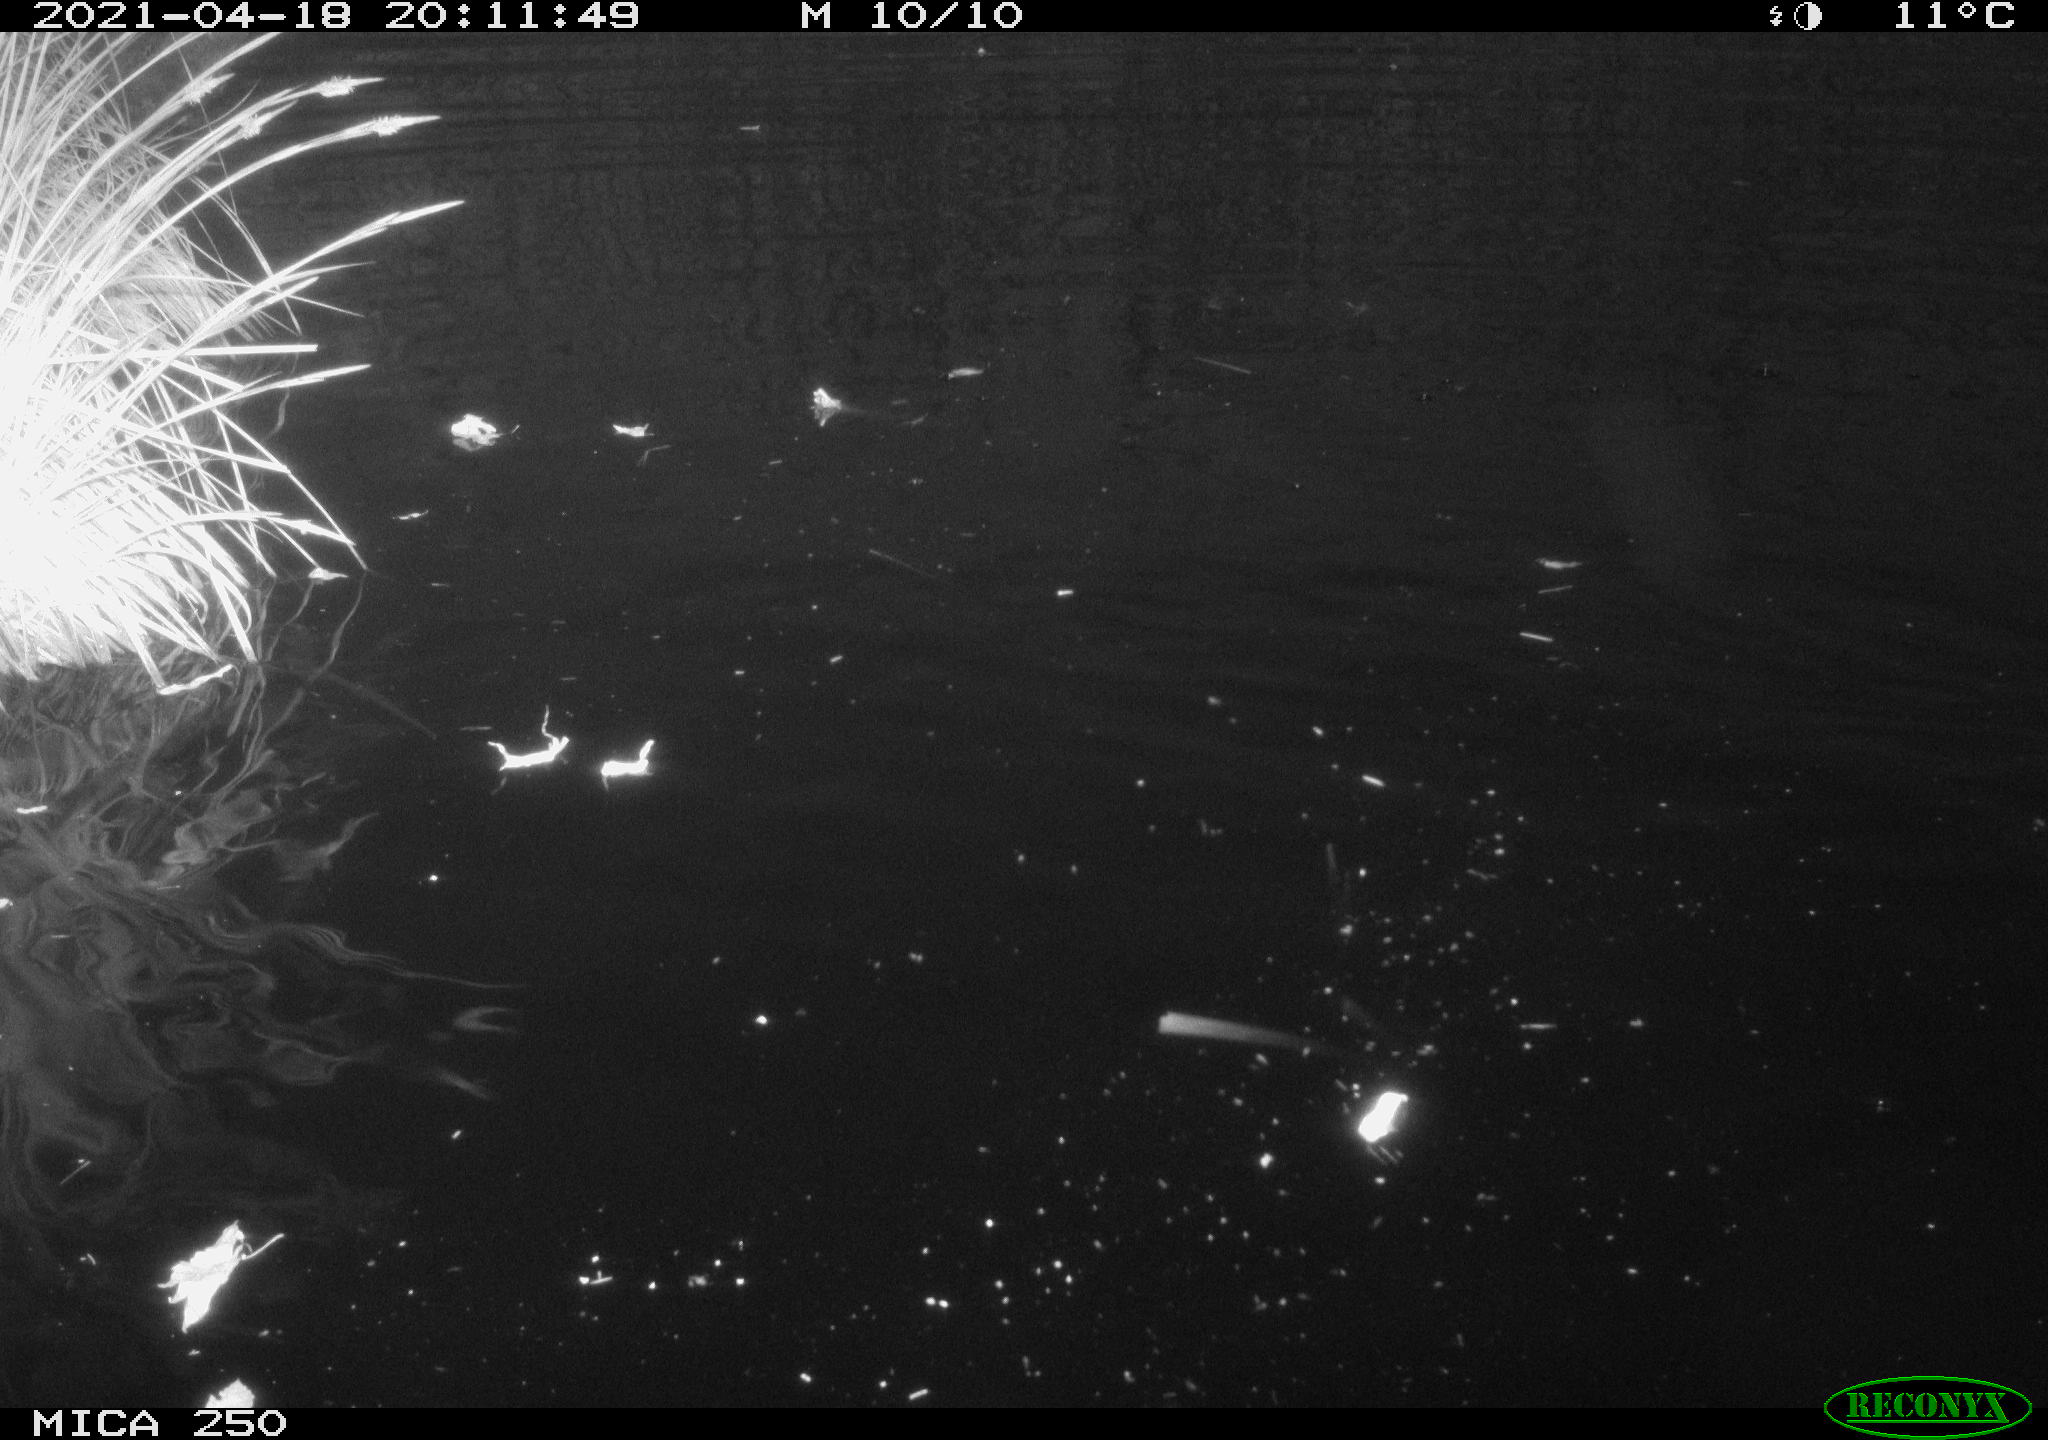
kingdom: Animalia
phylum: Chordata
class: Aves
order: Gruiformes
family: Rallidae
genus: Gallinula
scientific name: Gallinula chloropus
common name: Common moorhen
